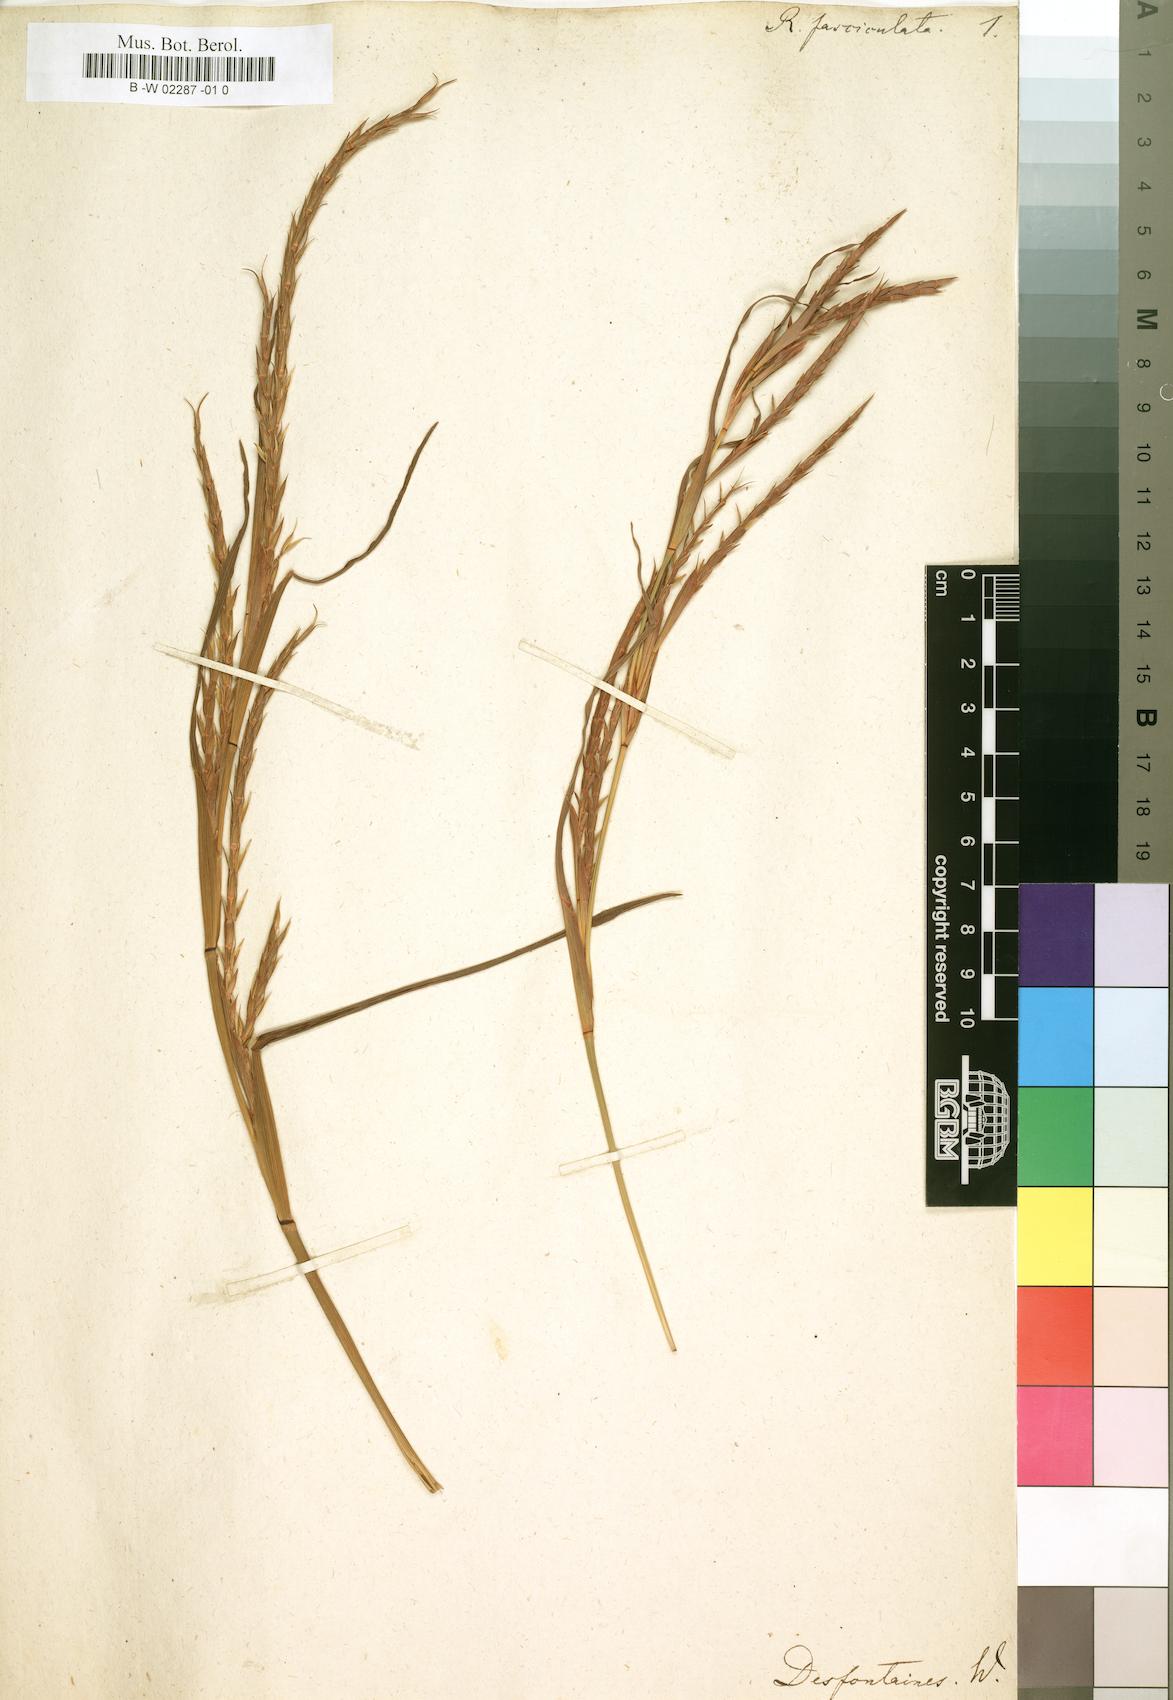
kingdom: Plantae
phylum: Tracheophyta
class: Liliopsida
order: Poales
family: Poaceae
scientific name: Poaceae
